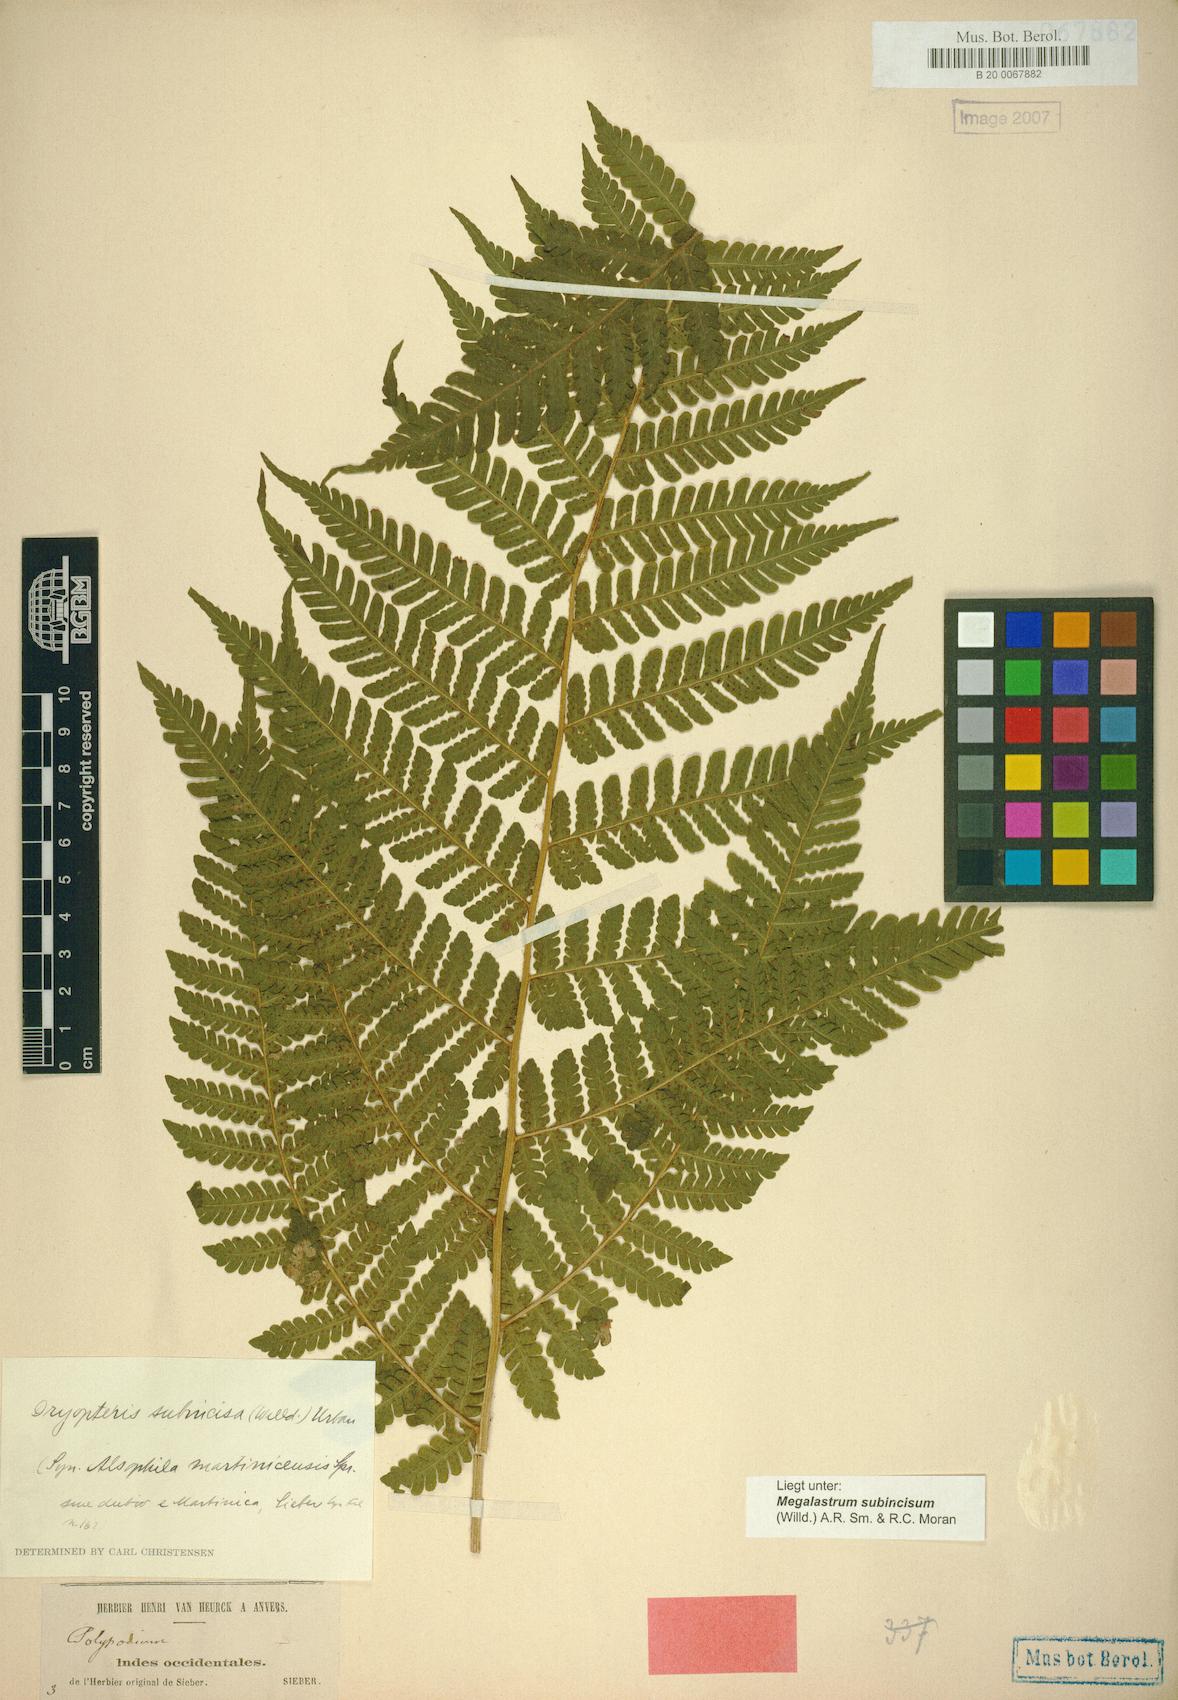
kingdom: Plantae
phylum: Tracheophyta
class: Polypodiopsida
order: Polypodiales
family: Dryopteridaceae
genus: Megalastrum
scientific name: Megalastrum martinicense
